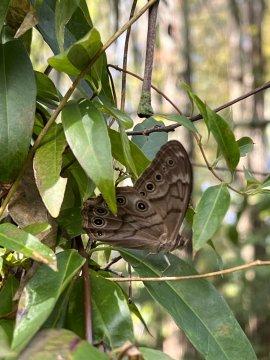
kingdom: Animalia
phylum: Arthropoda
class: Insecta
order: Lepidoptera
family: Nymphalidae
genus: Lethe
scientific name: Lethe creola
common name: Creole Pearly-Eye
